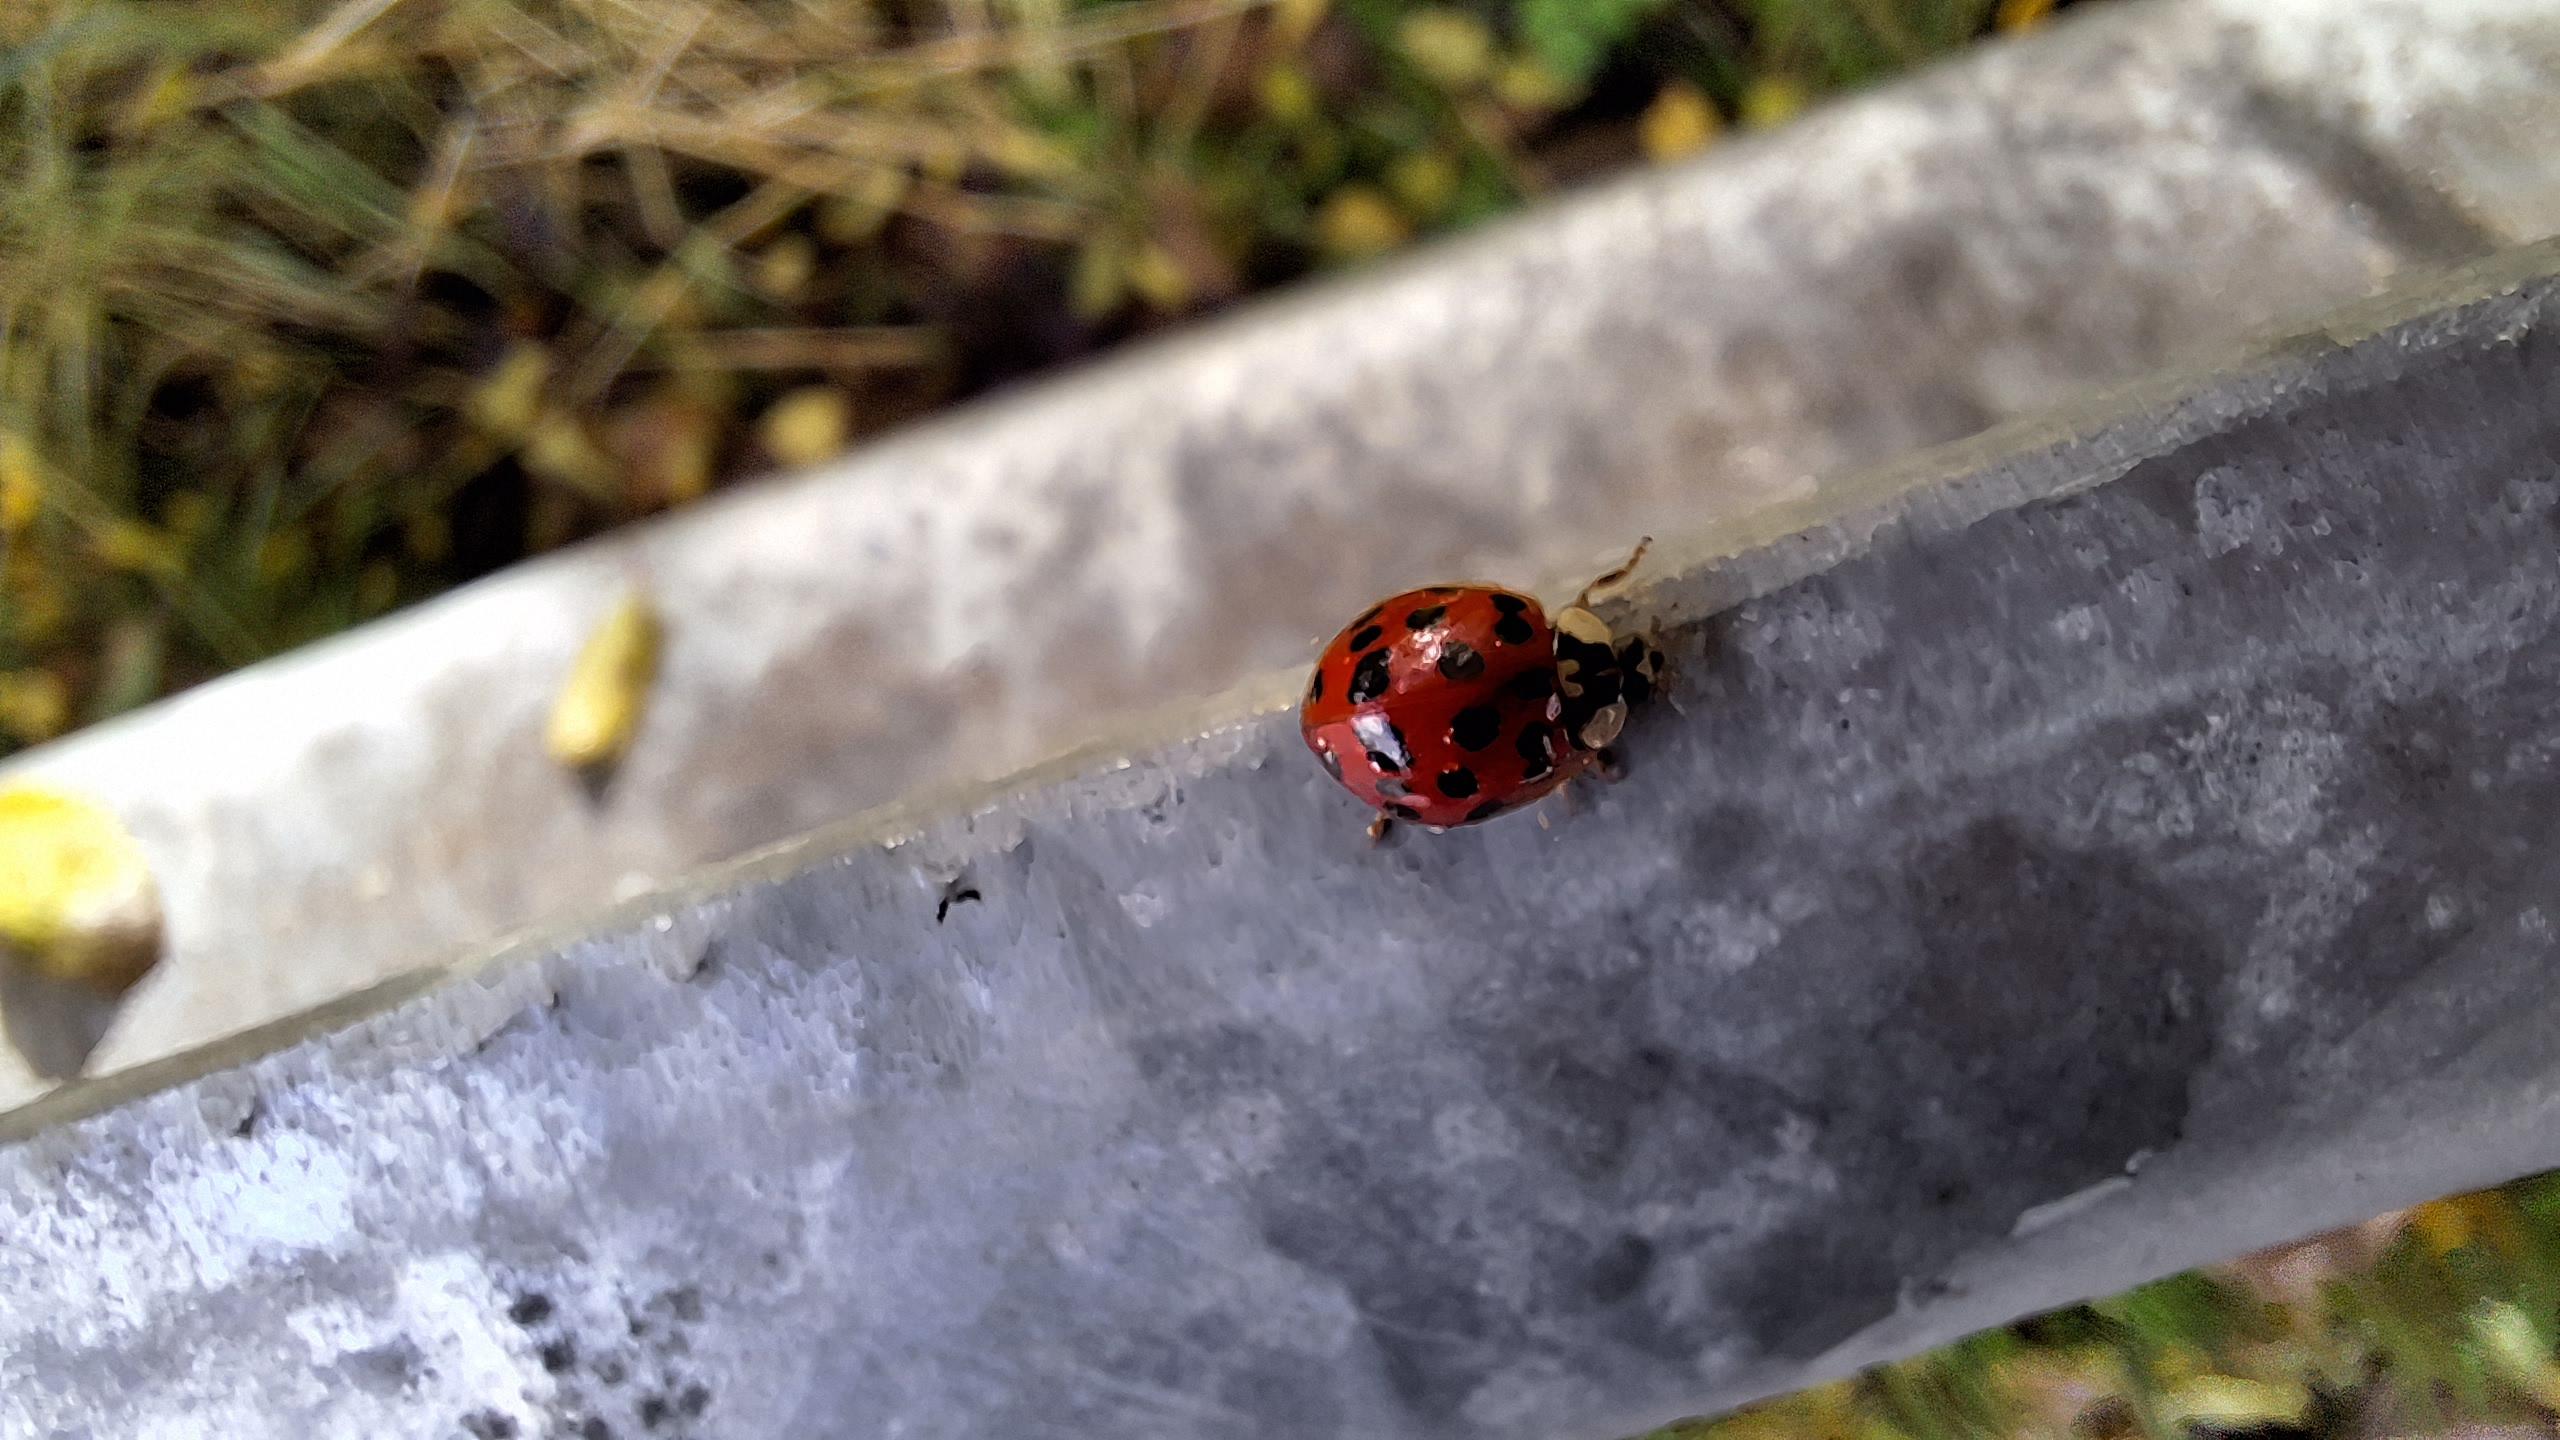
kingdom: Animalia
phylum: Arthropoda
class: Insecta
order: Coleoptera
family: Coccinellidae
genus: Harmonia
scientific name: Harmonia axyridis
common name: Harlekinmariehøne
